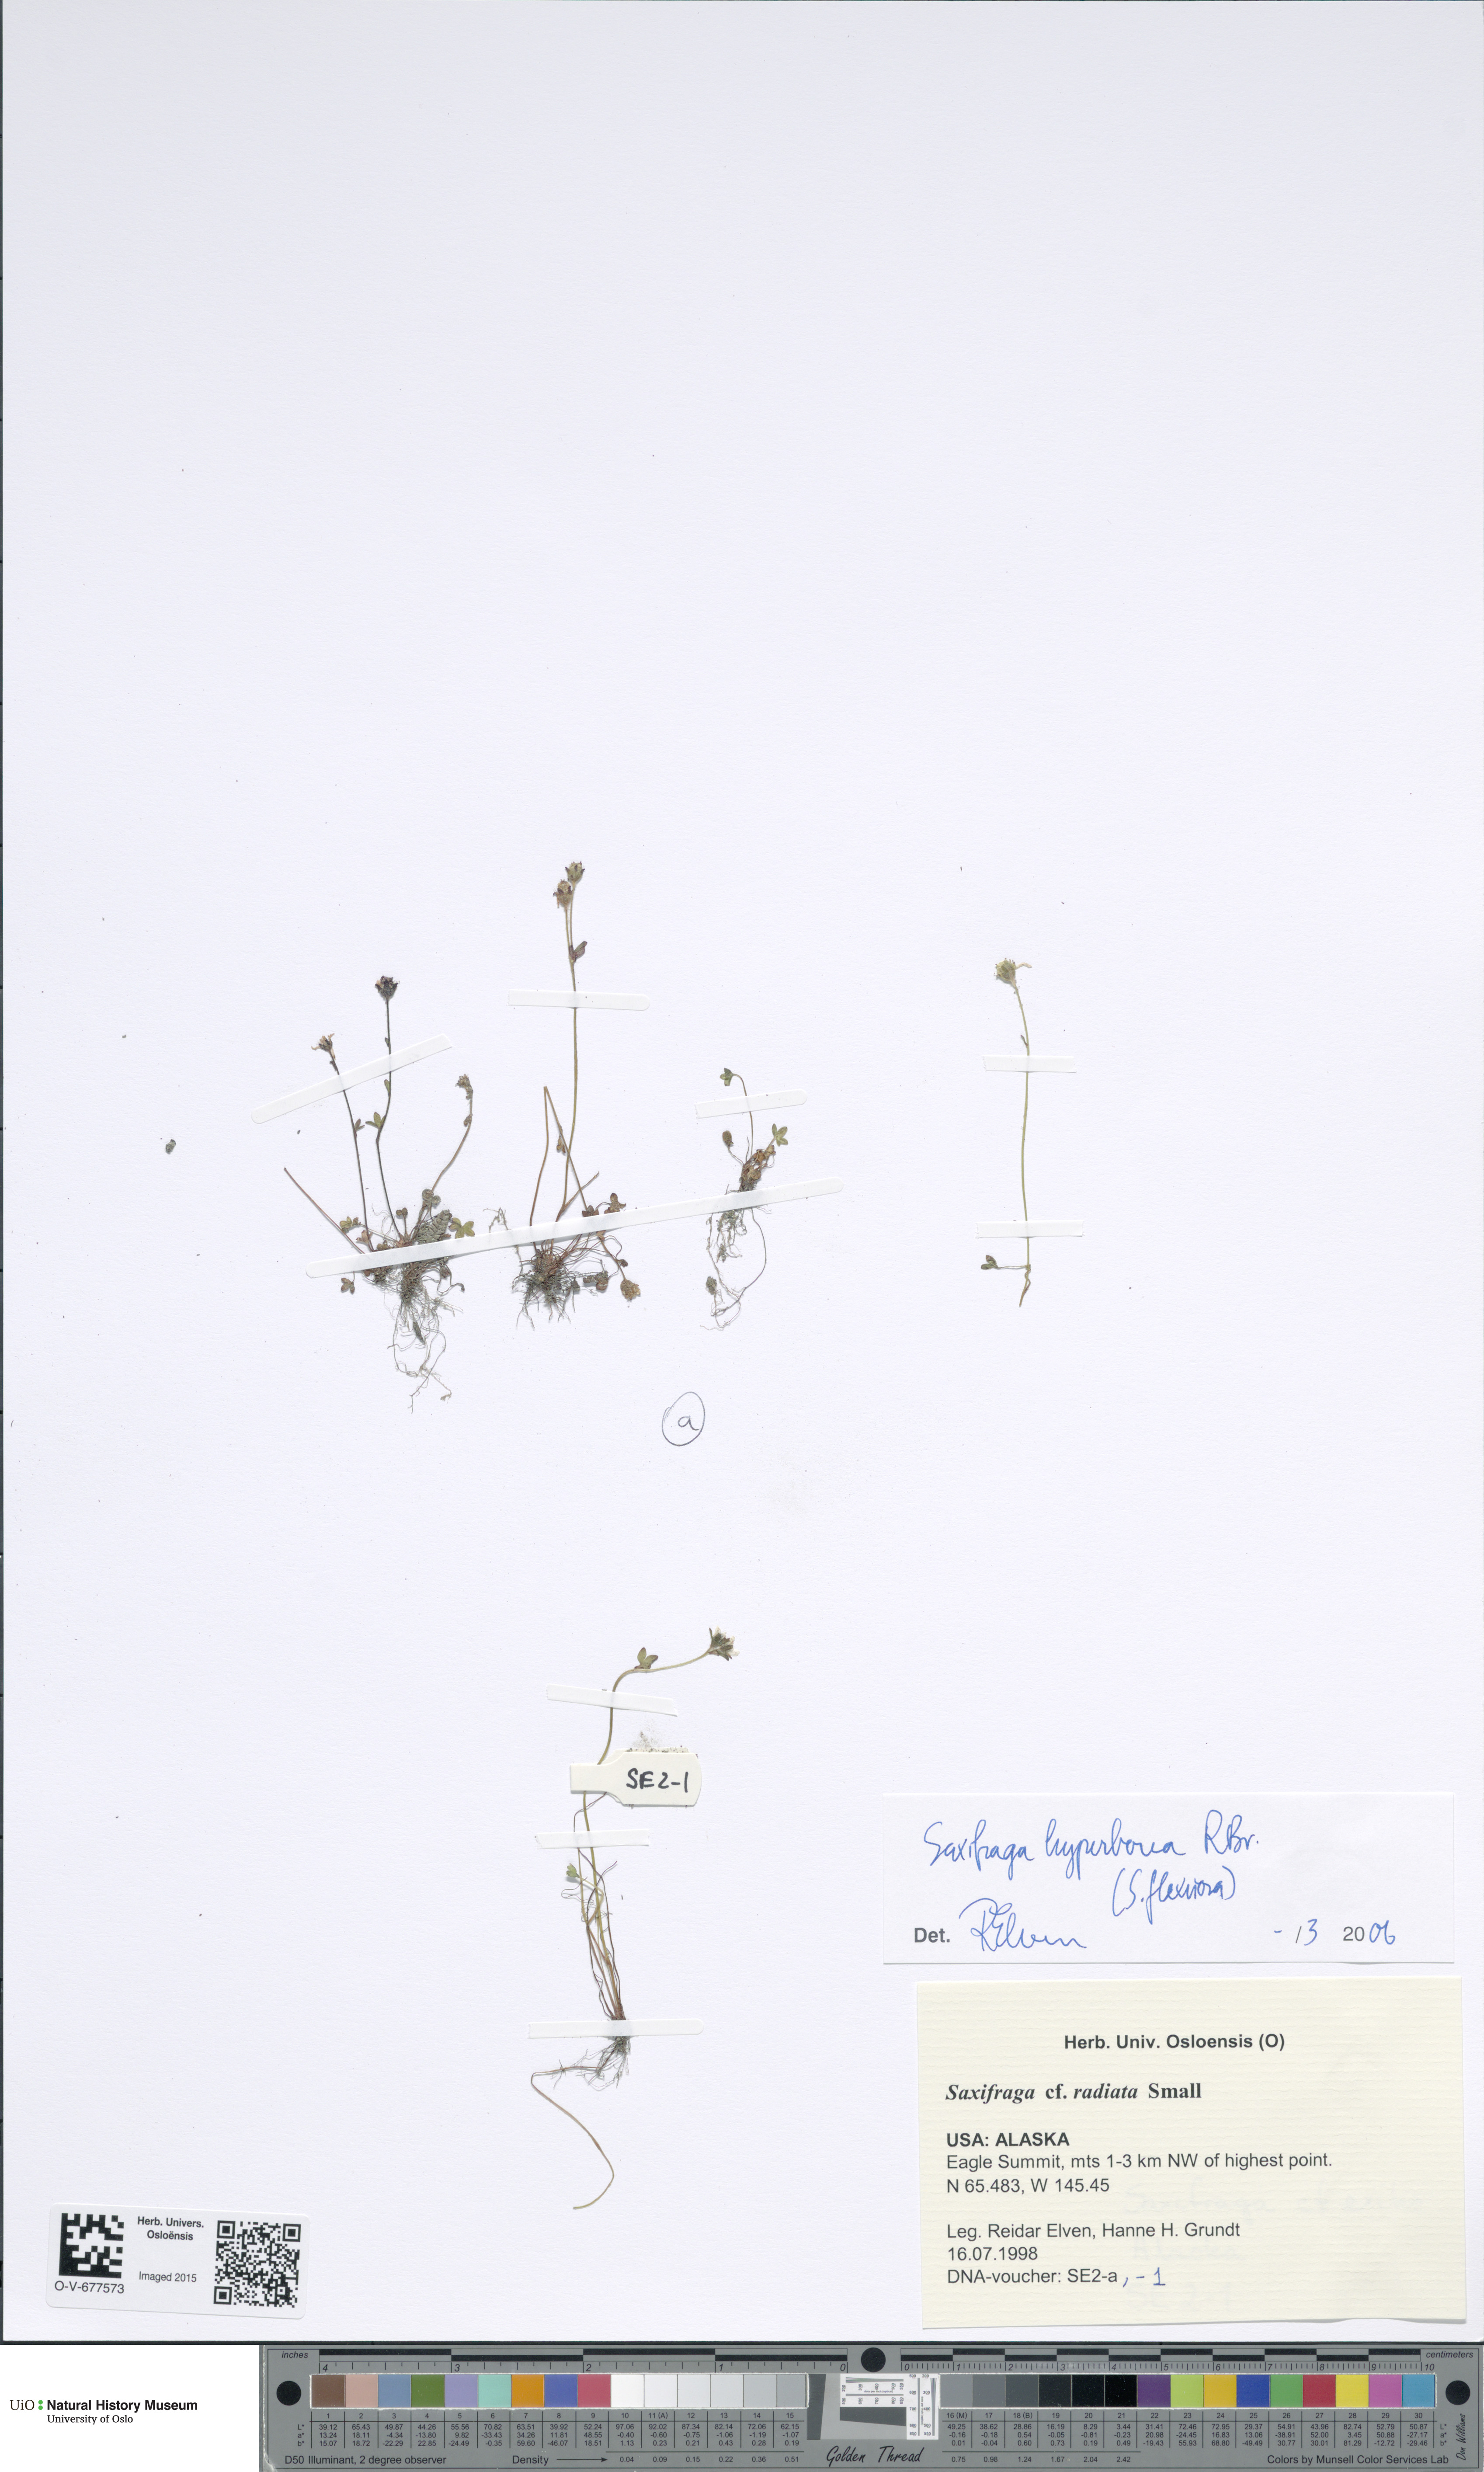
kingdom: Plantae
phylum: Tracheophyta
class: Magnoliopsida
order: Saxifragales
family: Saxifragaceae
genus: Saxifraga
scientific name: Saxifraga hyperborea
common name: Arctic saxifrage
